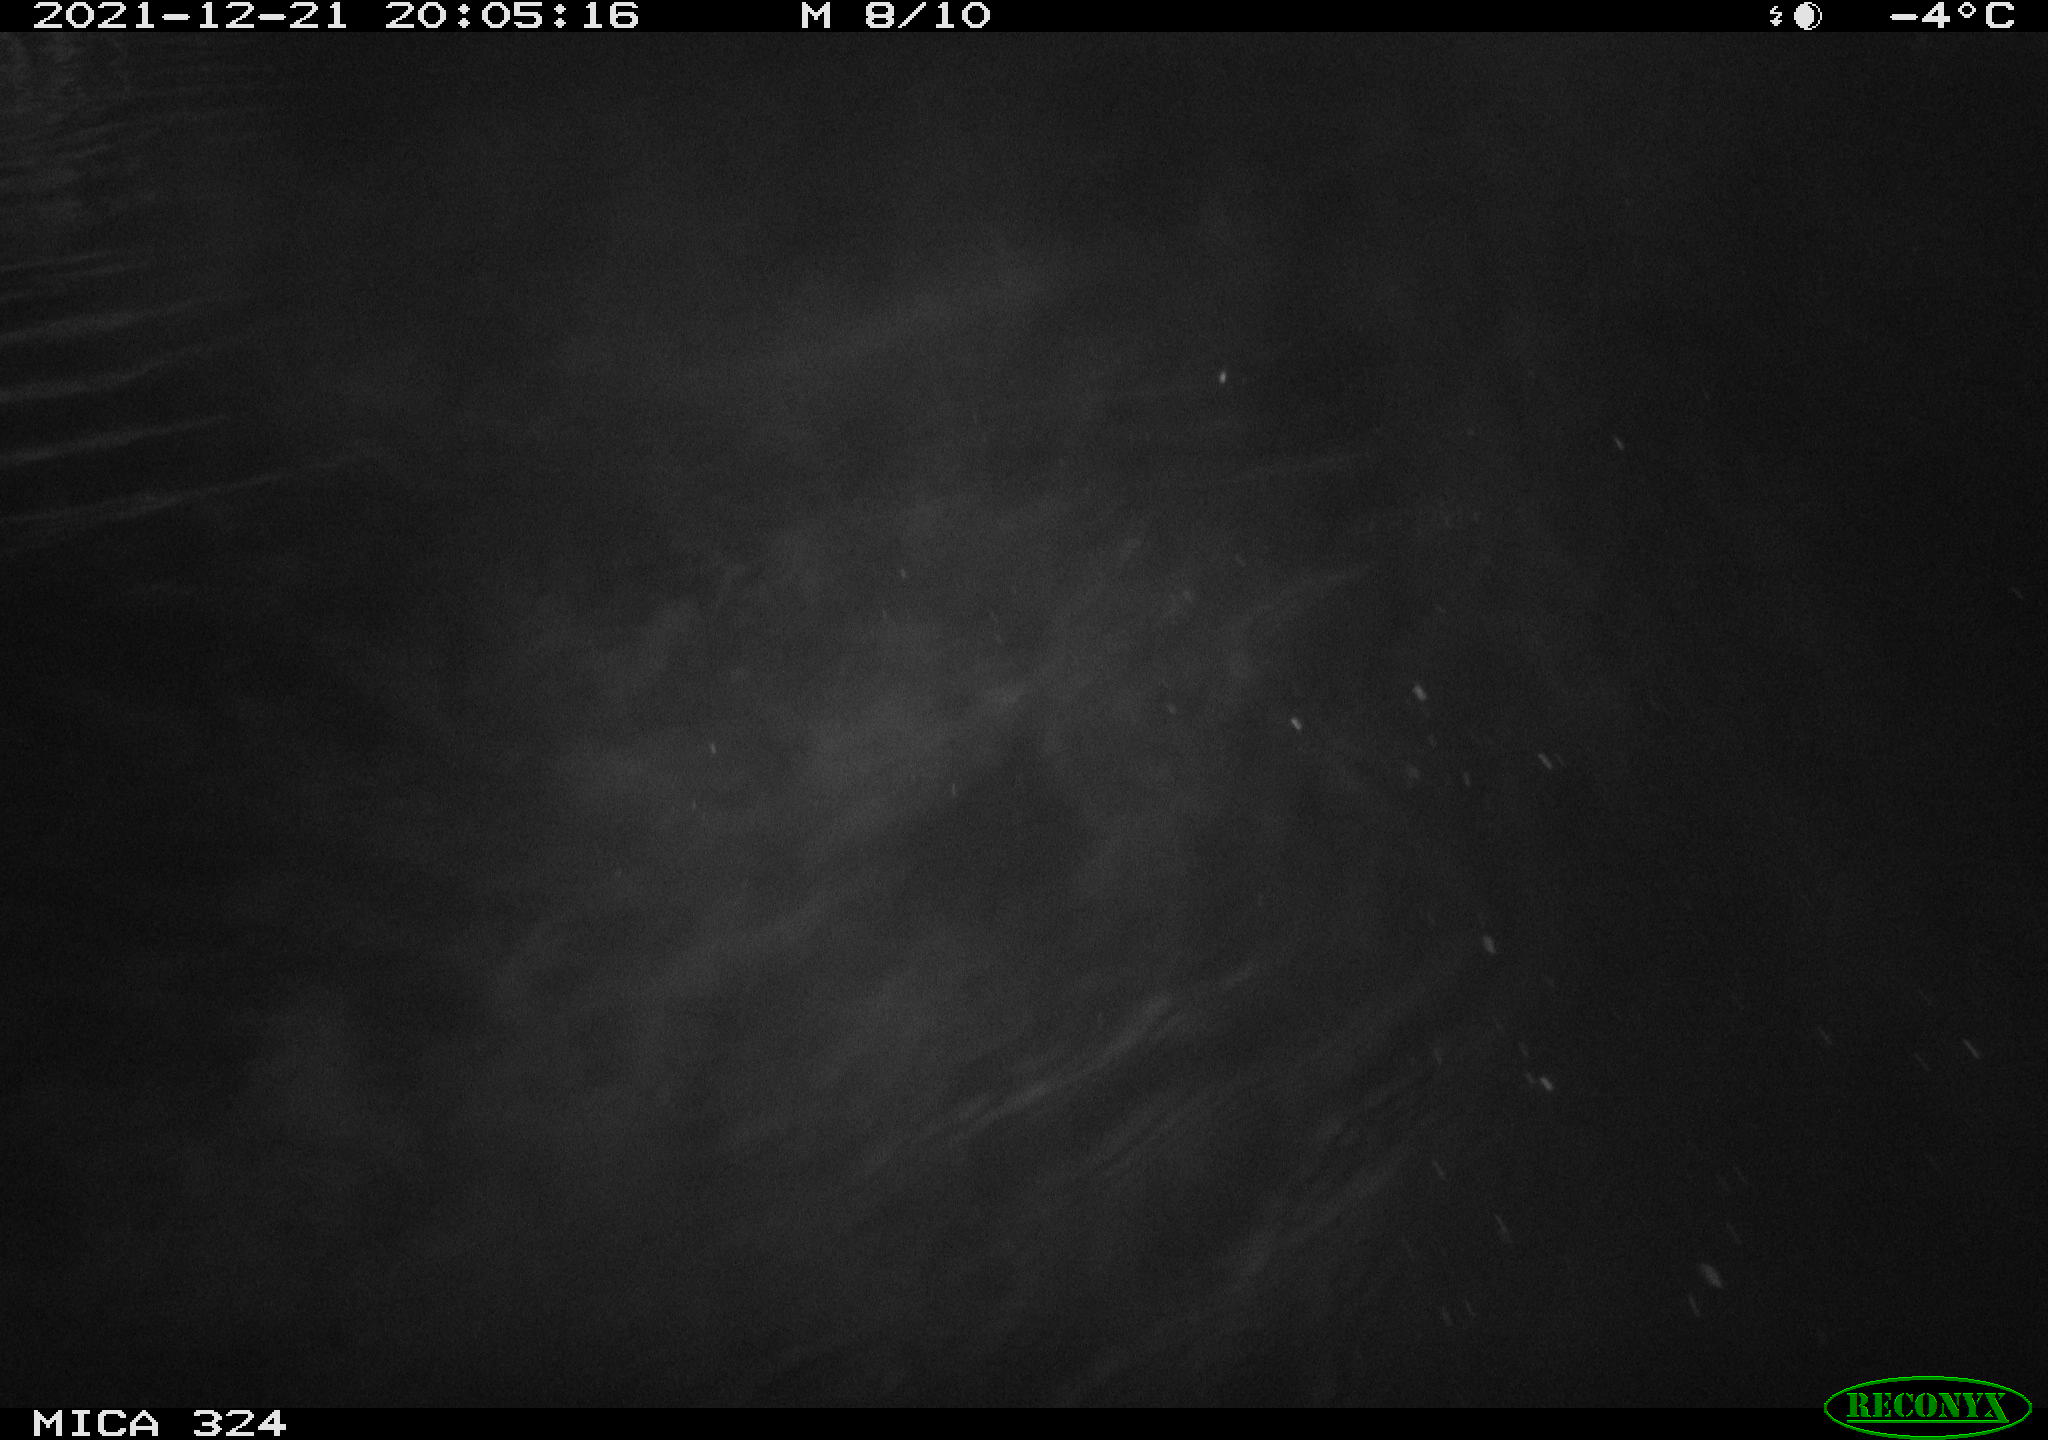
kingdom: Animalia
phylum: Chordata
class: Mammalia
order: Rodentia
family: Cricetidae
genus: Ondatra
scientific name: Ondatra zibethicus
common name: Muskrat
